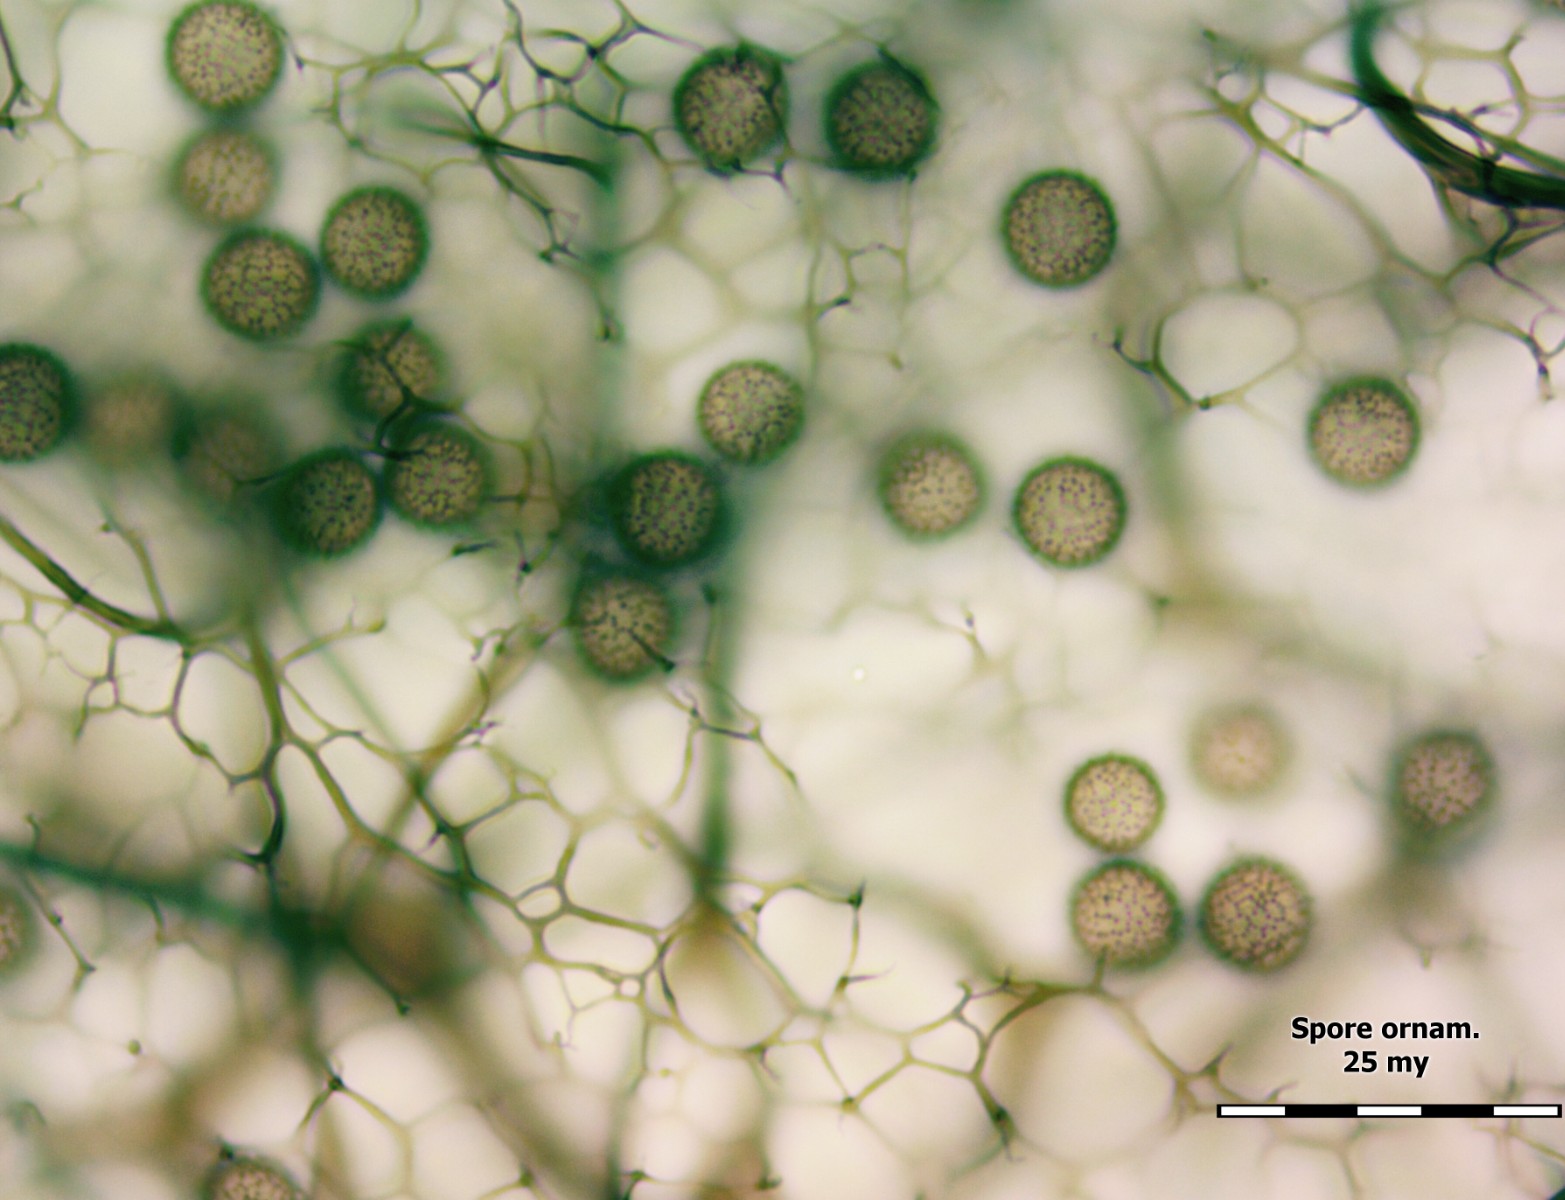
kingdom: Protozoa
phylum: Mycetozoa
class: Myxomycetes
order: Stemonitidales
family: Stemonitidaceae
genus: Stemonitis
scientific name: Stemonitis fusca
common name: sodbrun støvkølle
